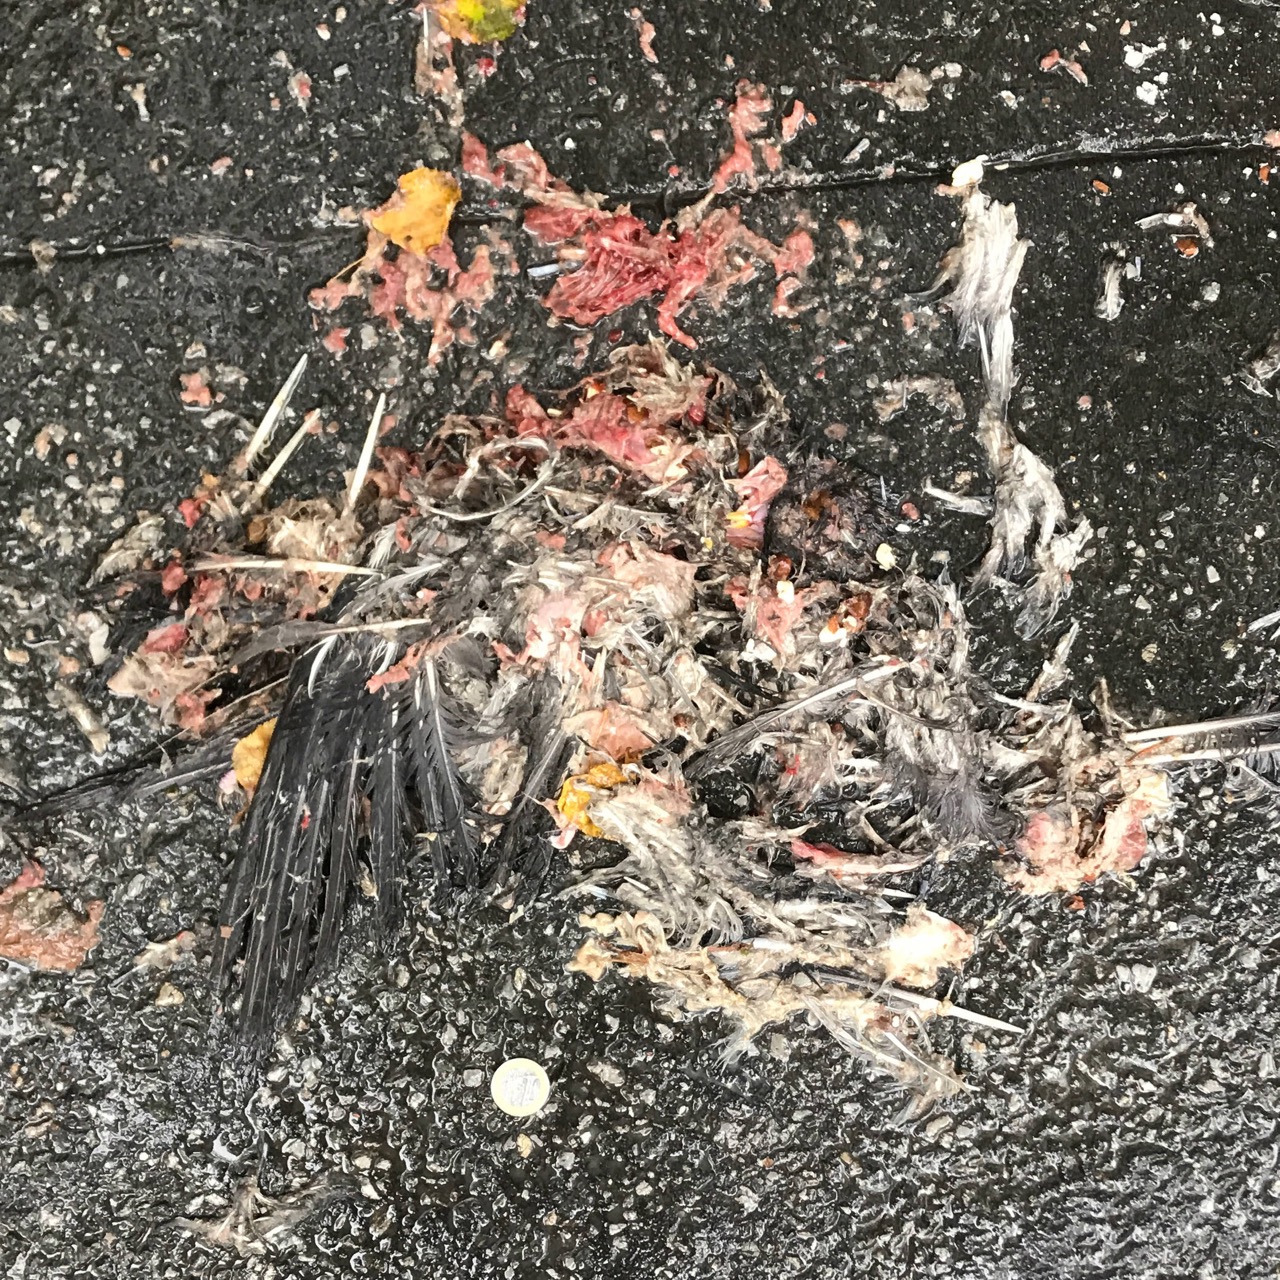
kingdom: Animalia
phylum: Chordata
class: Aves
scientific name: Aves
